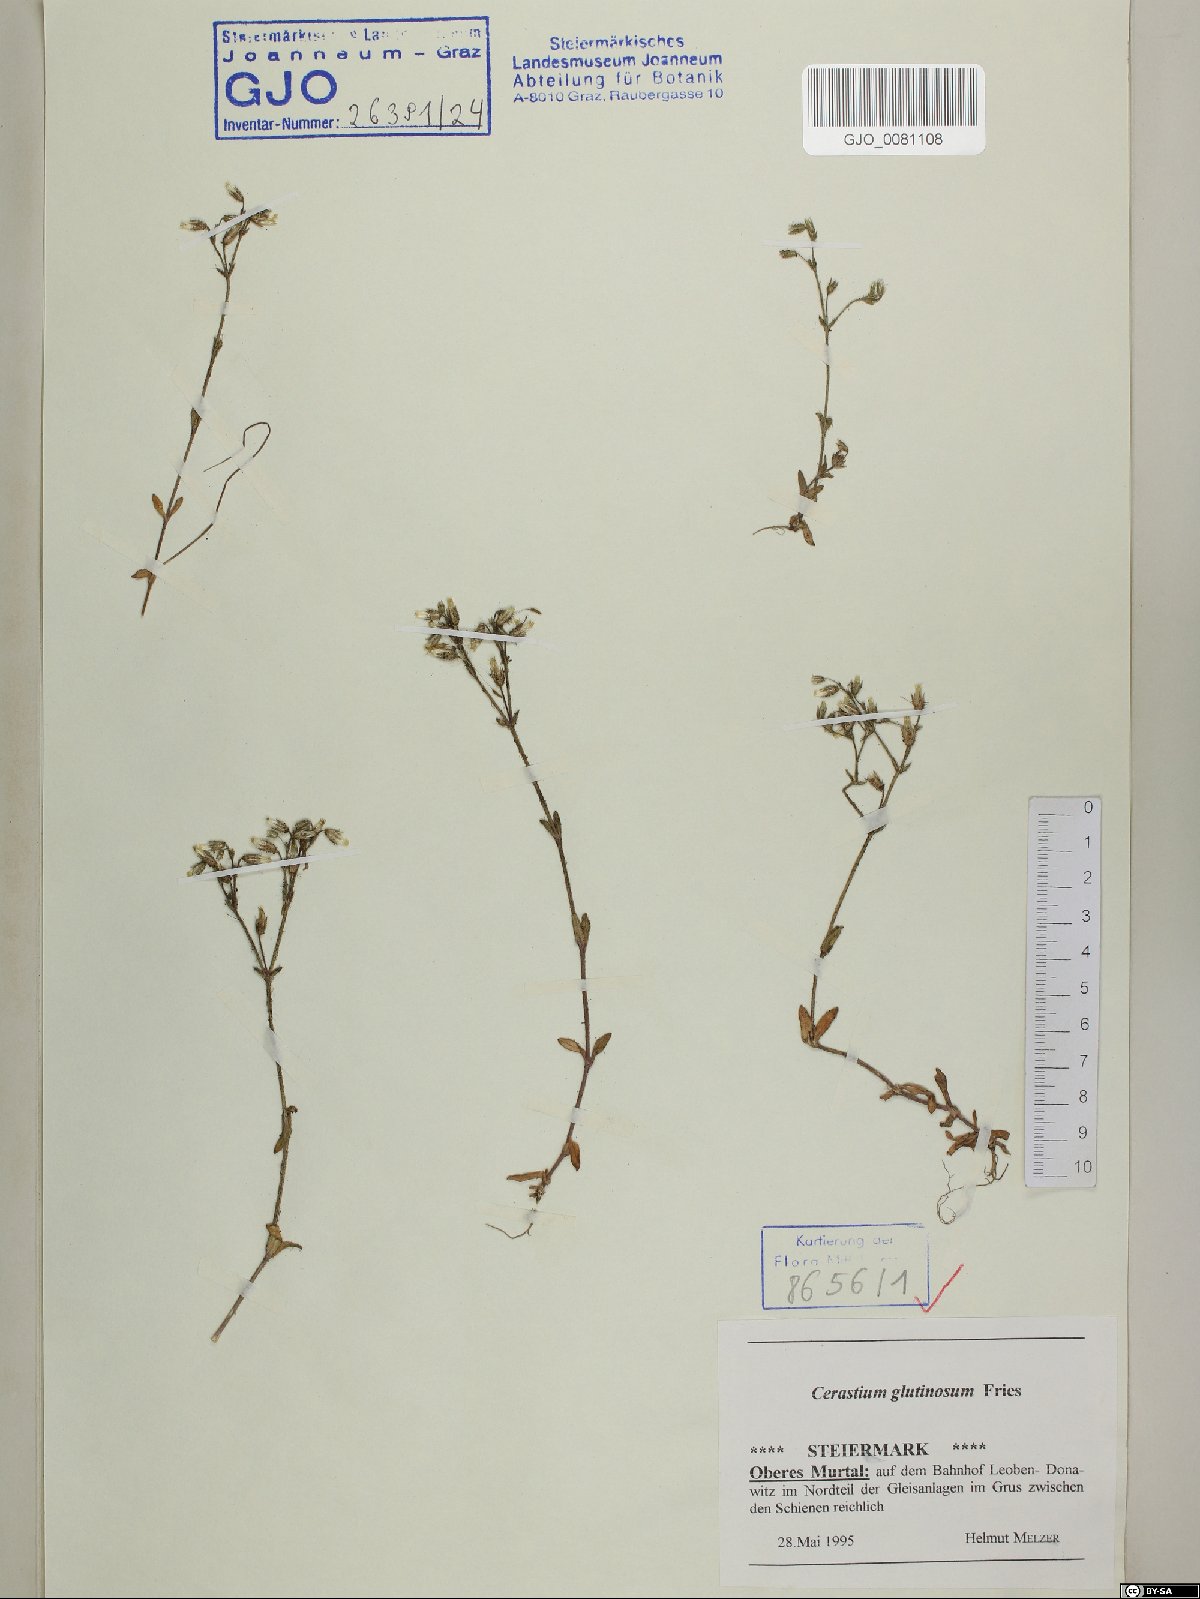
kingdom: Plantae
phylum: Tracheophyta
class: Magnoliopsida
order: Caryophyllales
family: Caryophyllaceae
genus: Cerastium
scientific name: Cerastium glutinosum
